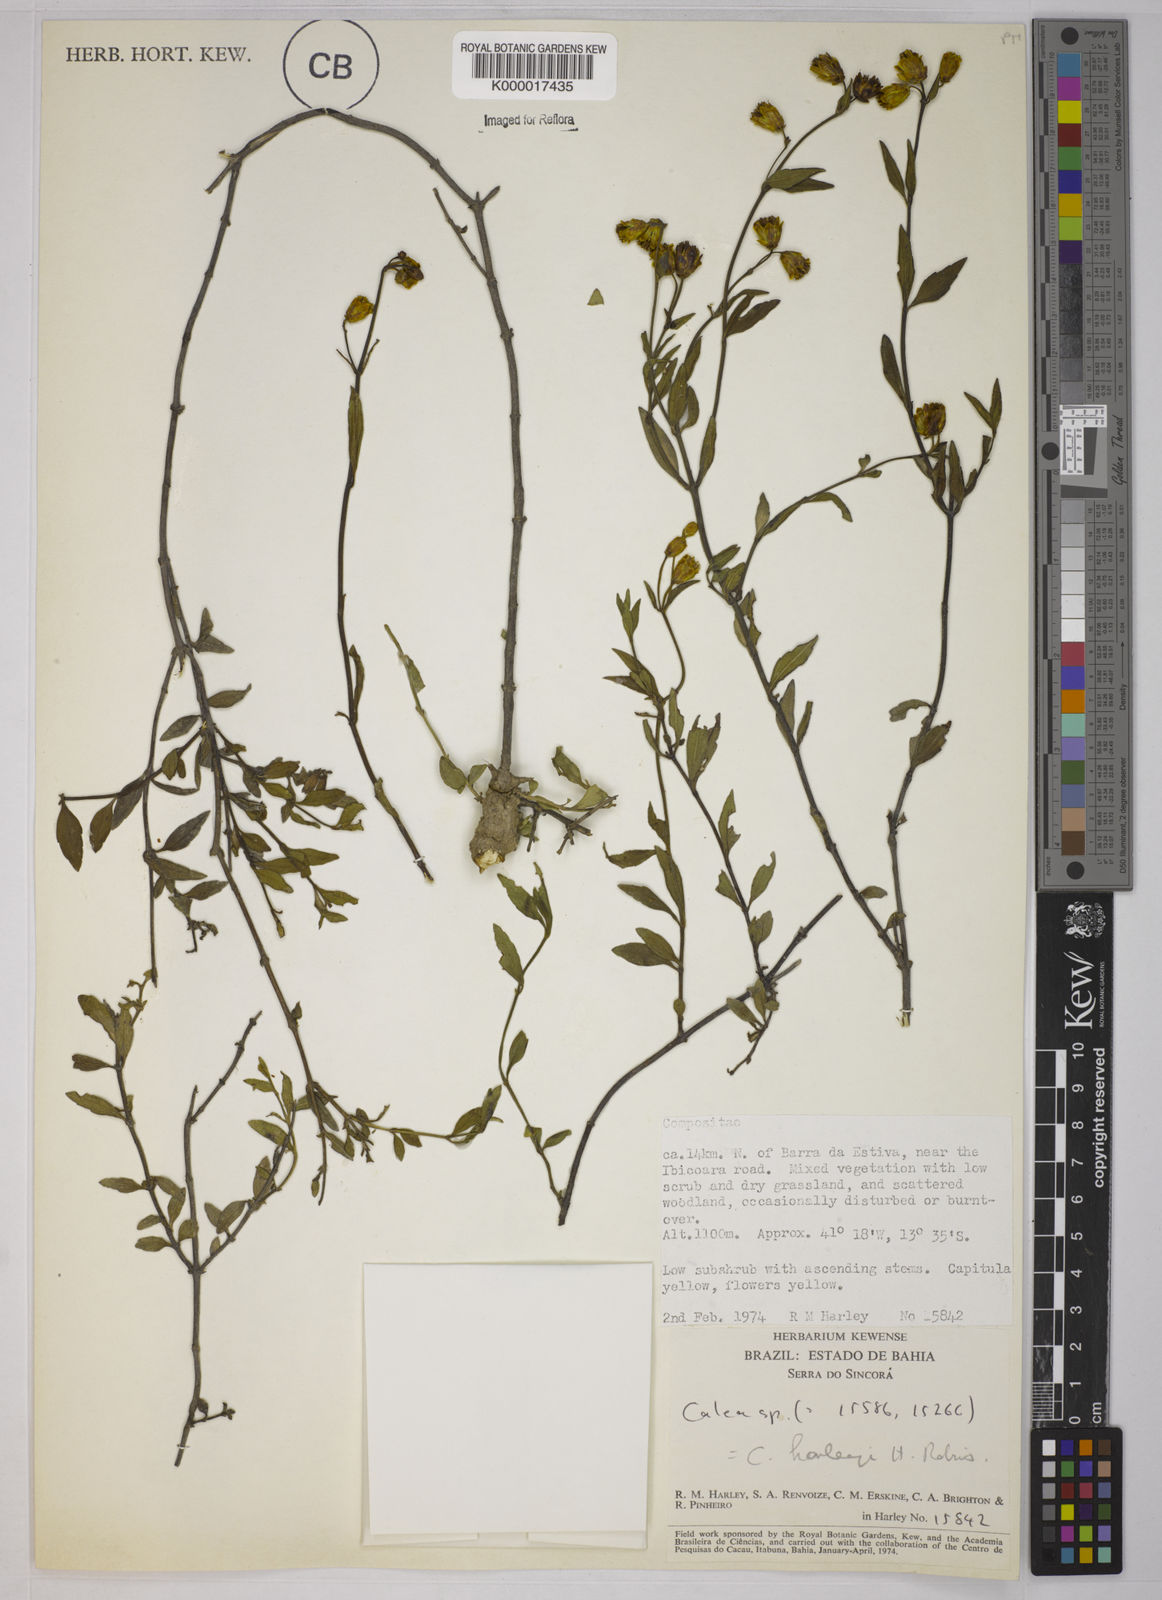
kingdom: Plantae
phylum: Tracheophyta
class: Magnoliopsida
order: Asterales
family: Asteraceae
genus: Calea
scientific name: Calea harleyi
